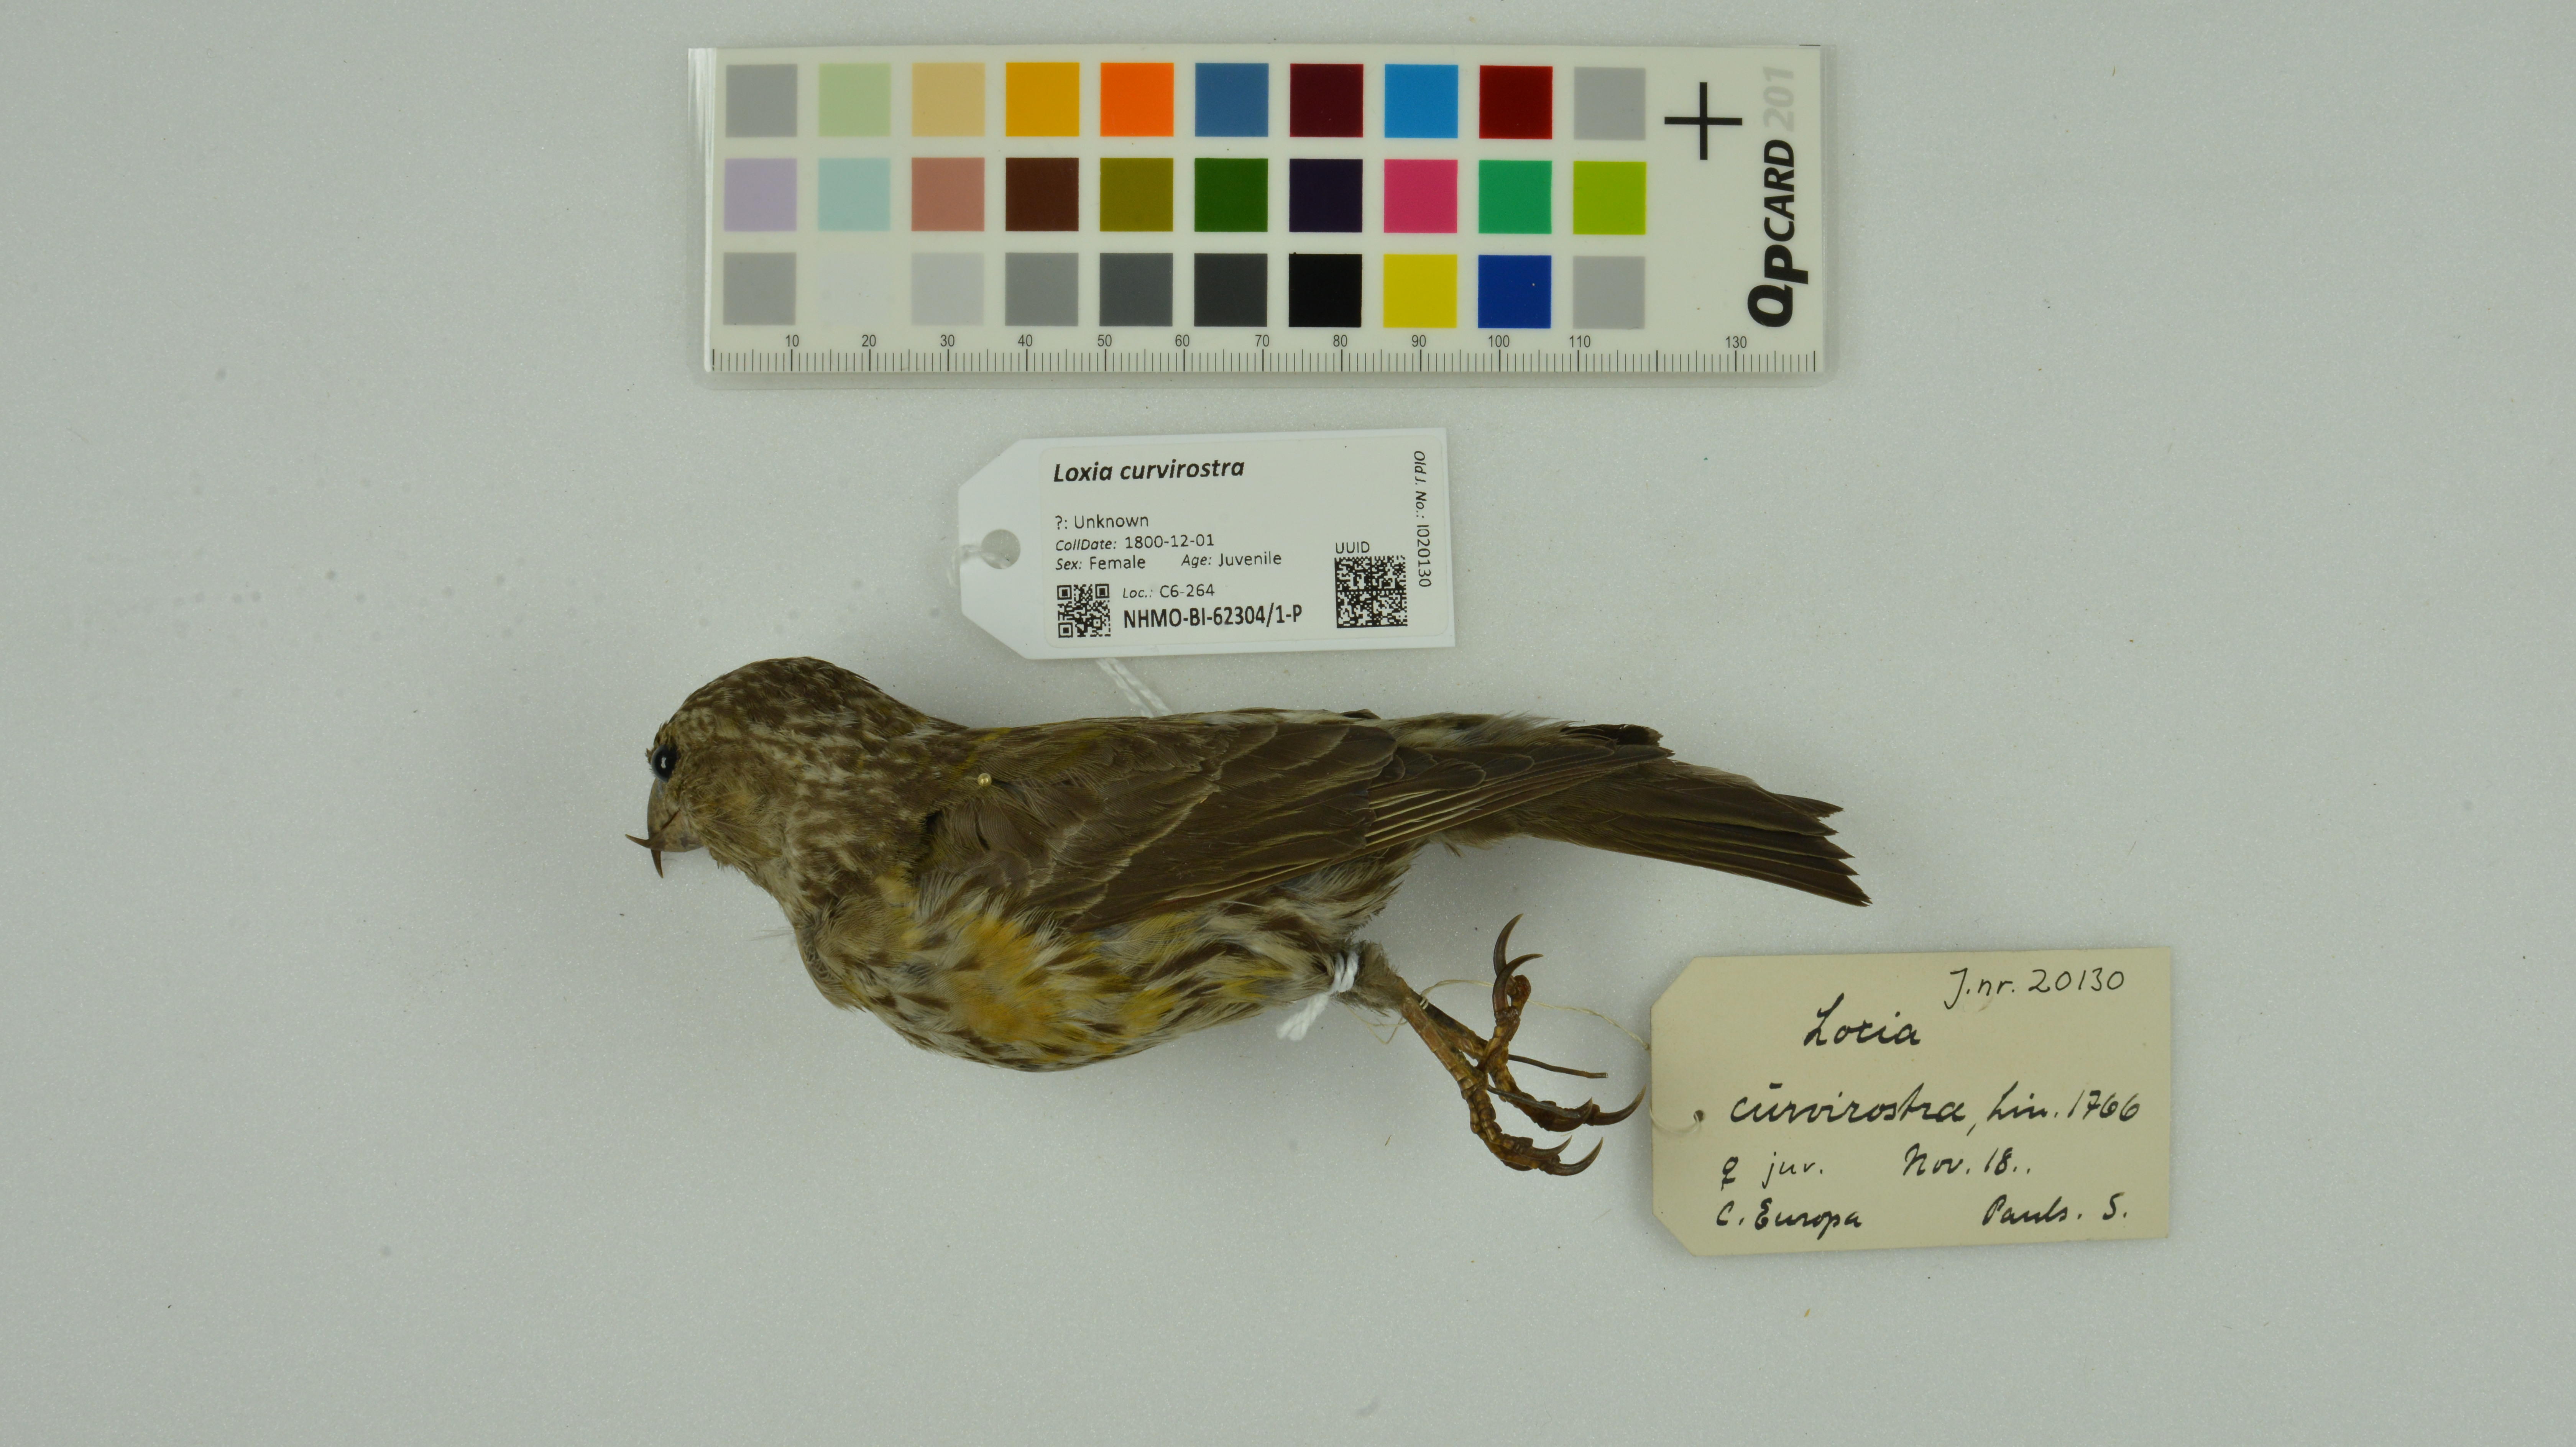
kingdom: Animalia
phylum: Chordata
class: Aves
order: Passeriformes
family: Fringillidae
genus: Loxia
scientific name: Loxia curvirostra
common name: Red crossbill
